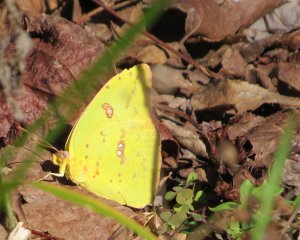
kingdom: Animalia
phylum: Arthropoda
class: Insecta
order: Lepidoptera
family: Pieridae
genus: Phoebis
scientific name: Phoebis sennae
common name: Cloudless Sulphur
